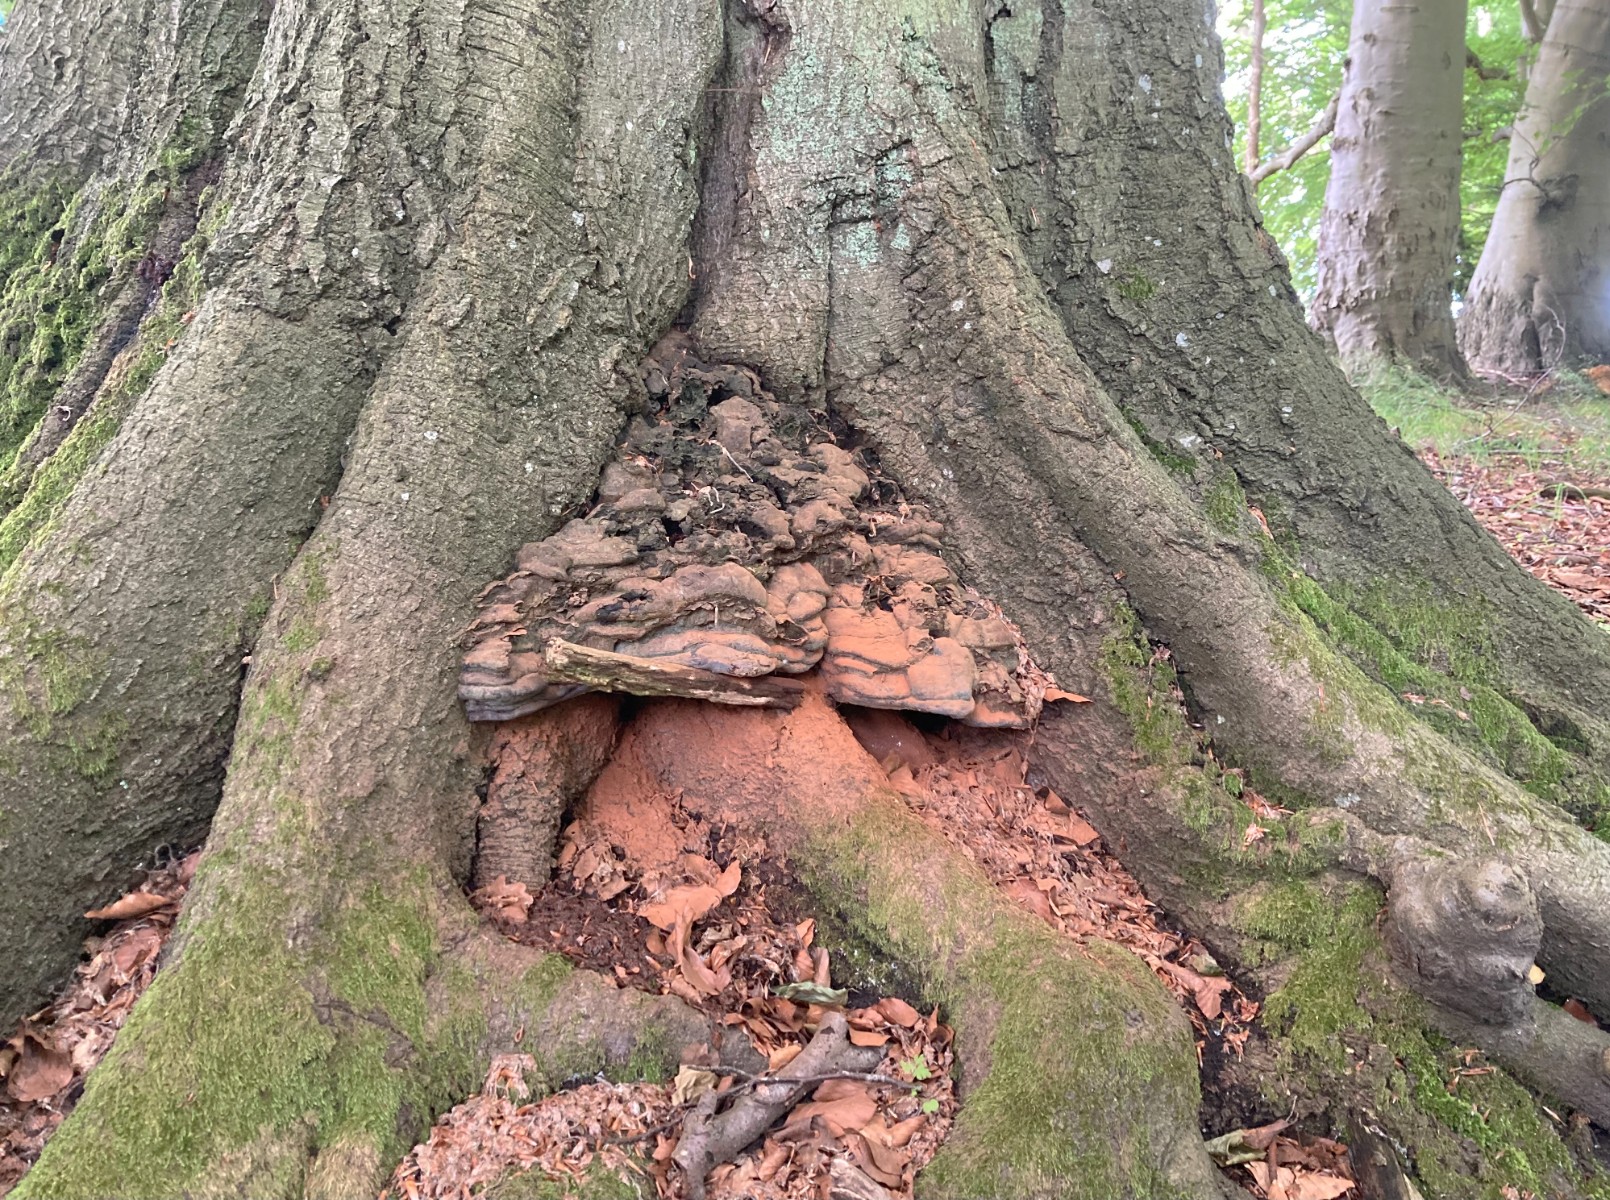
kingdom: Fungi
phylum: Basidiomycota
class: Agaricomycetes
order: Polyporales
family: Polyporaceae
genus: Ganoderma
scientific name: Ganoderma pfeifferi
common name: kobberrød lakporesvamp
